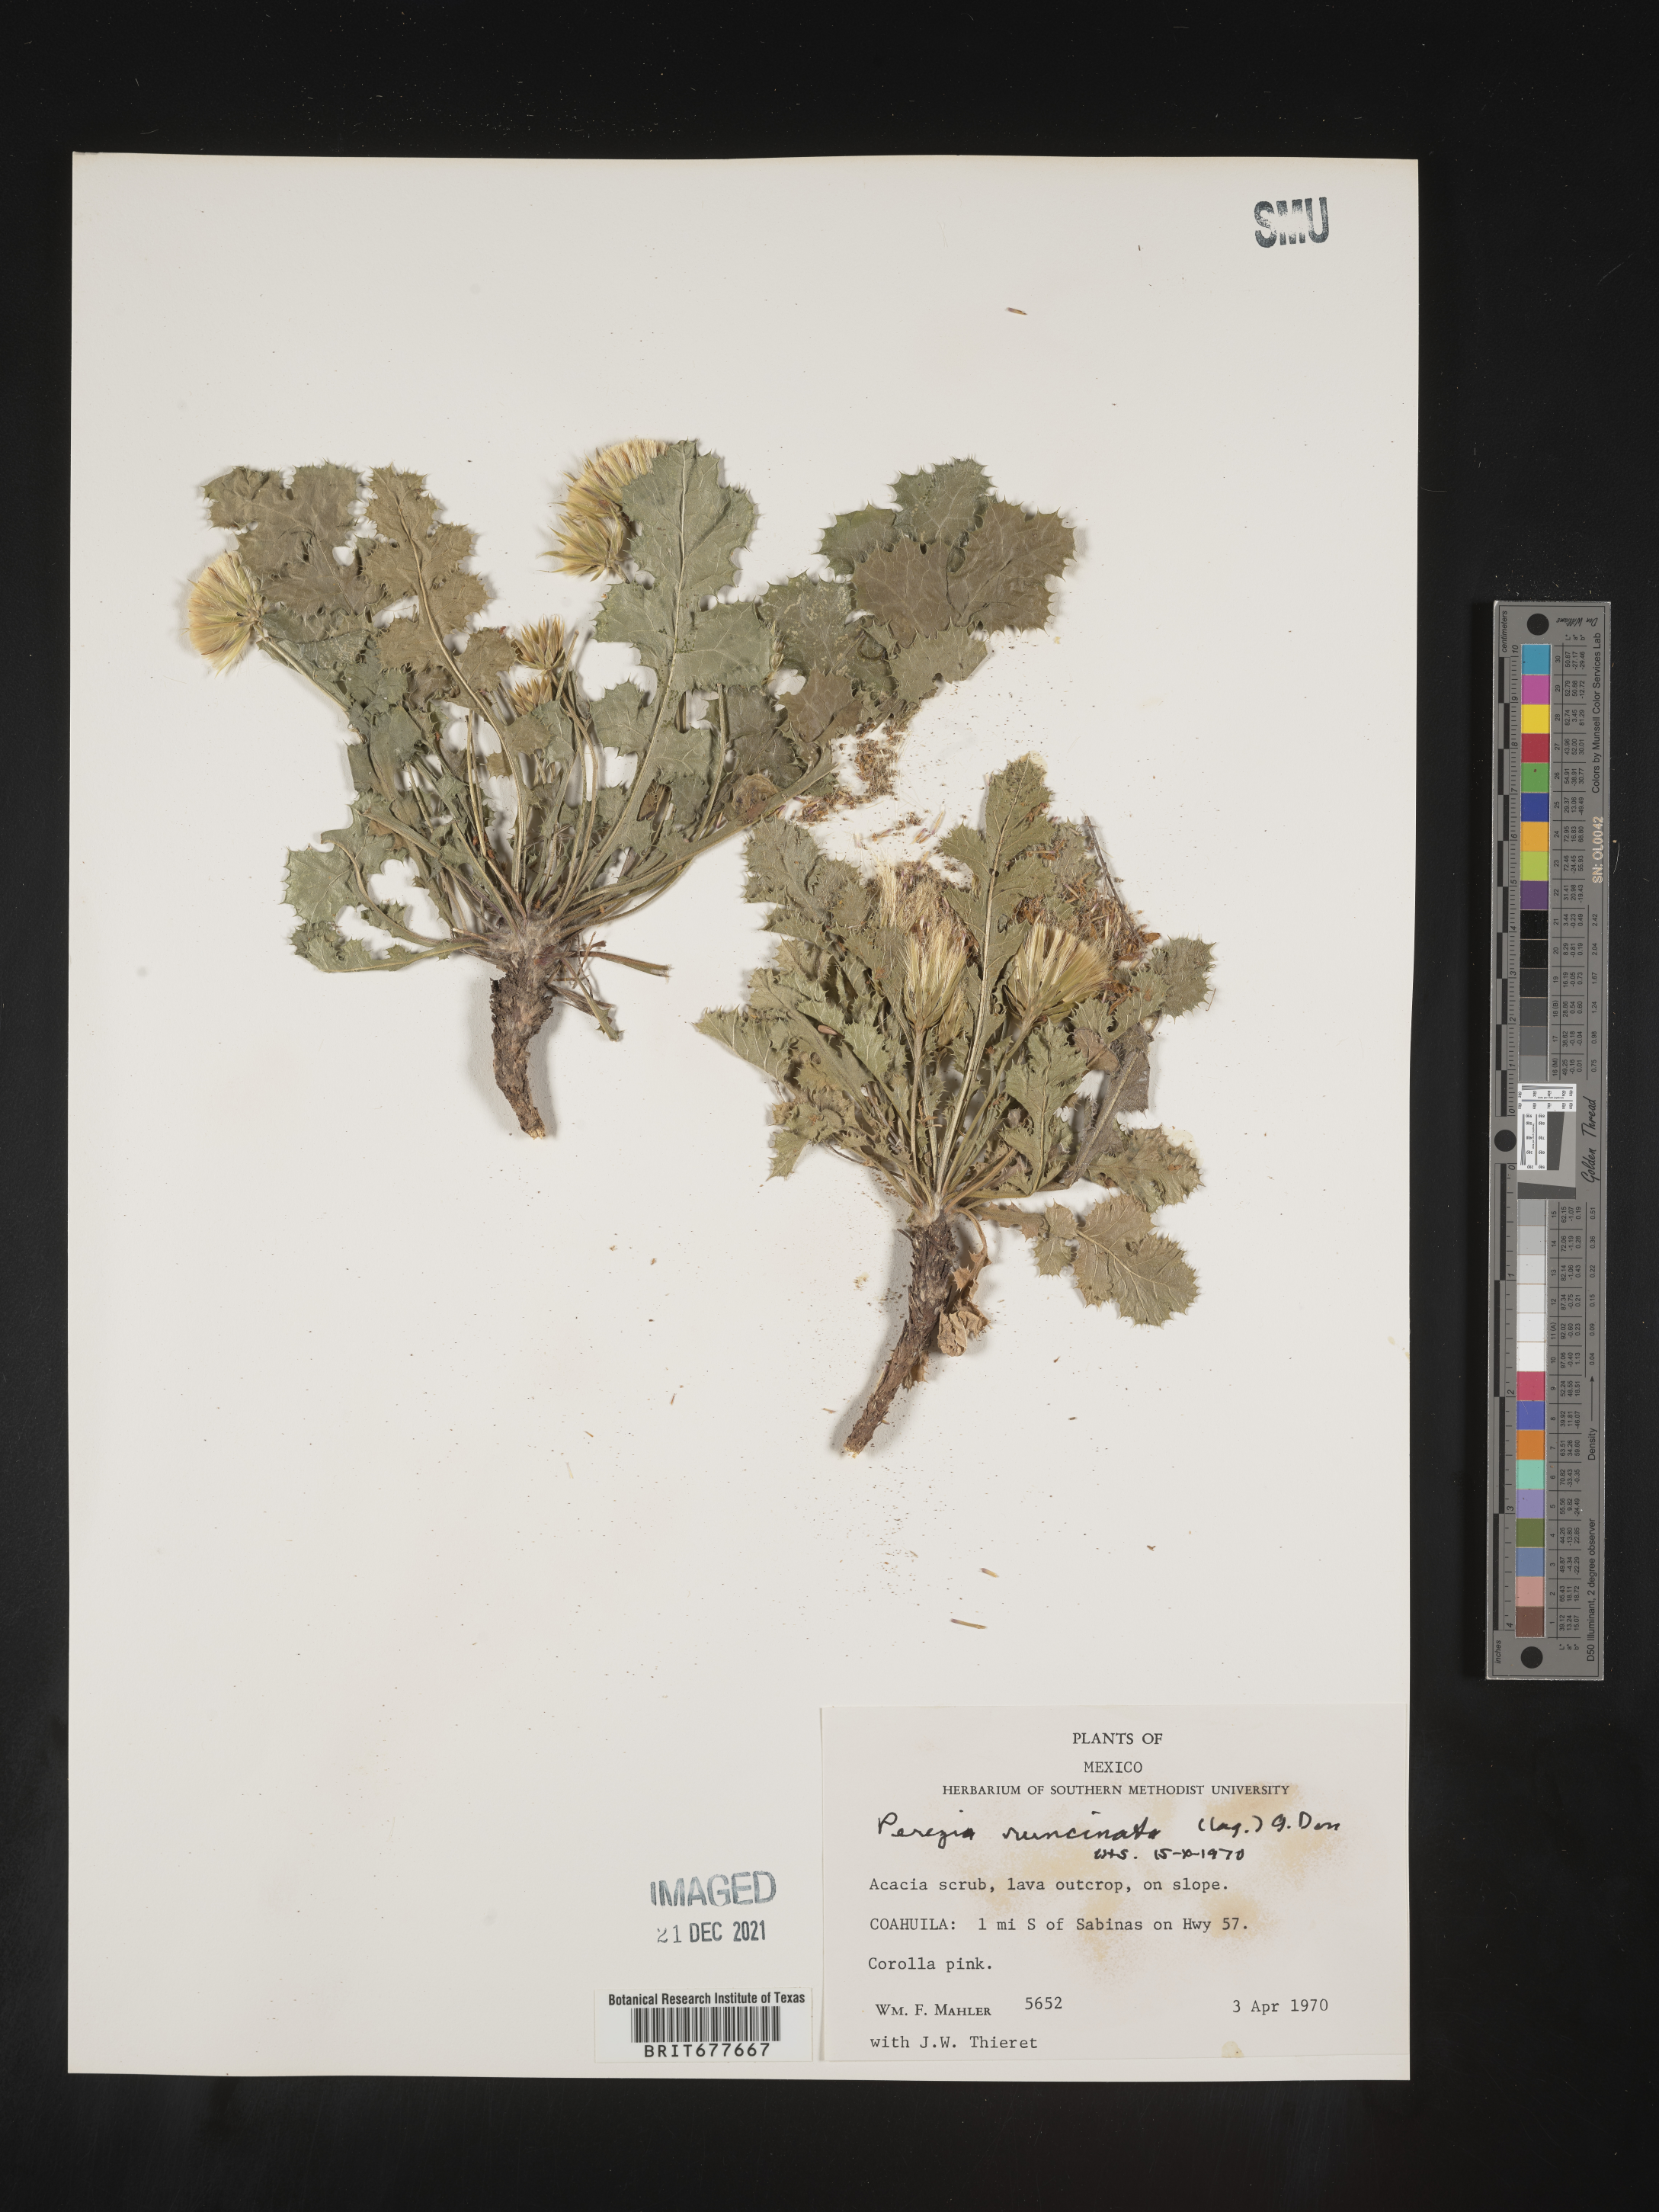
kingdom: Plantae
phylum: Tracheophyta
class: Magnoliopsida
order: Asterales
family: Asteraceae
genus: Perezia
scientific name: Perezia
